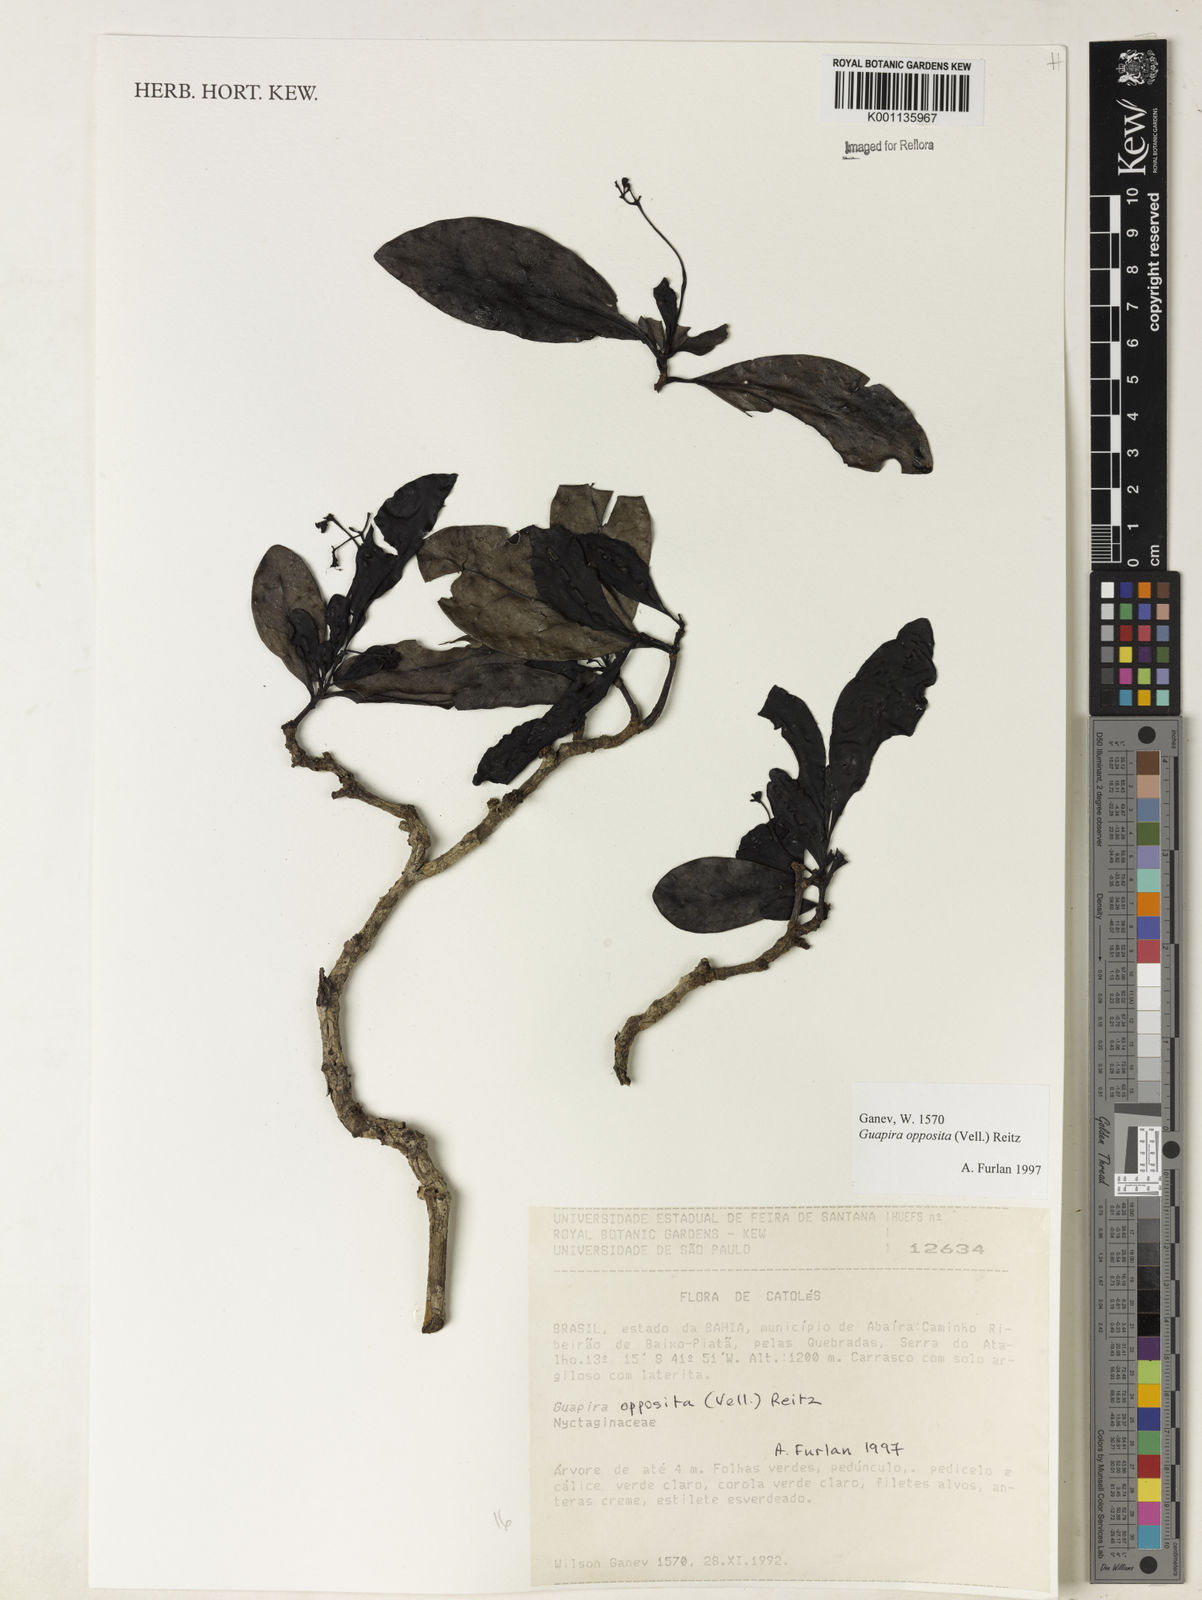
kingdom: Plantae
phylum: Tracheophyta
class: Magnoliopsida
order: Caryophyllales
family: Nyctaginaceae
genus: Guapira
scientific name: Guapira opposita
